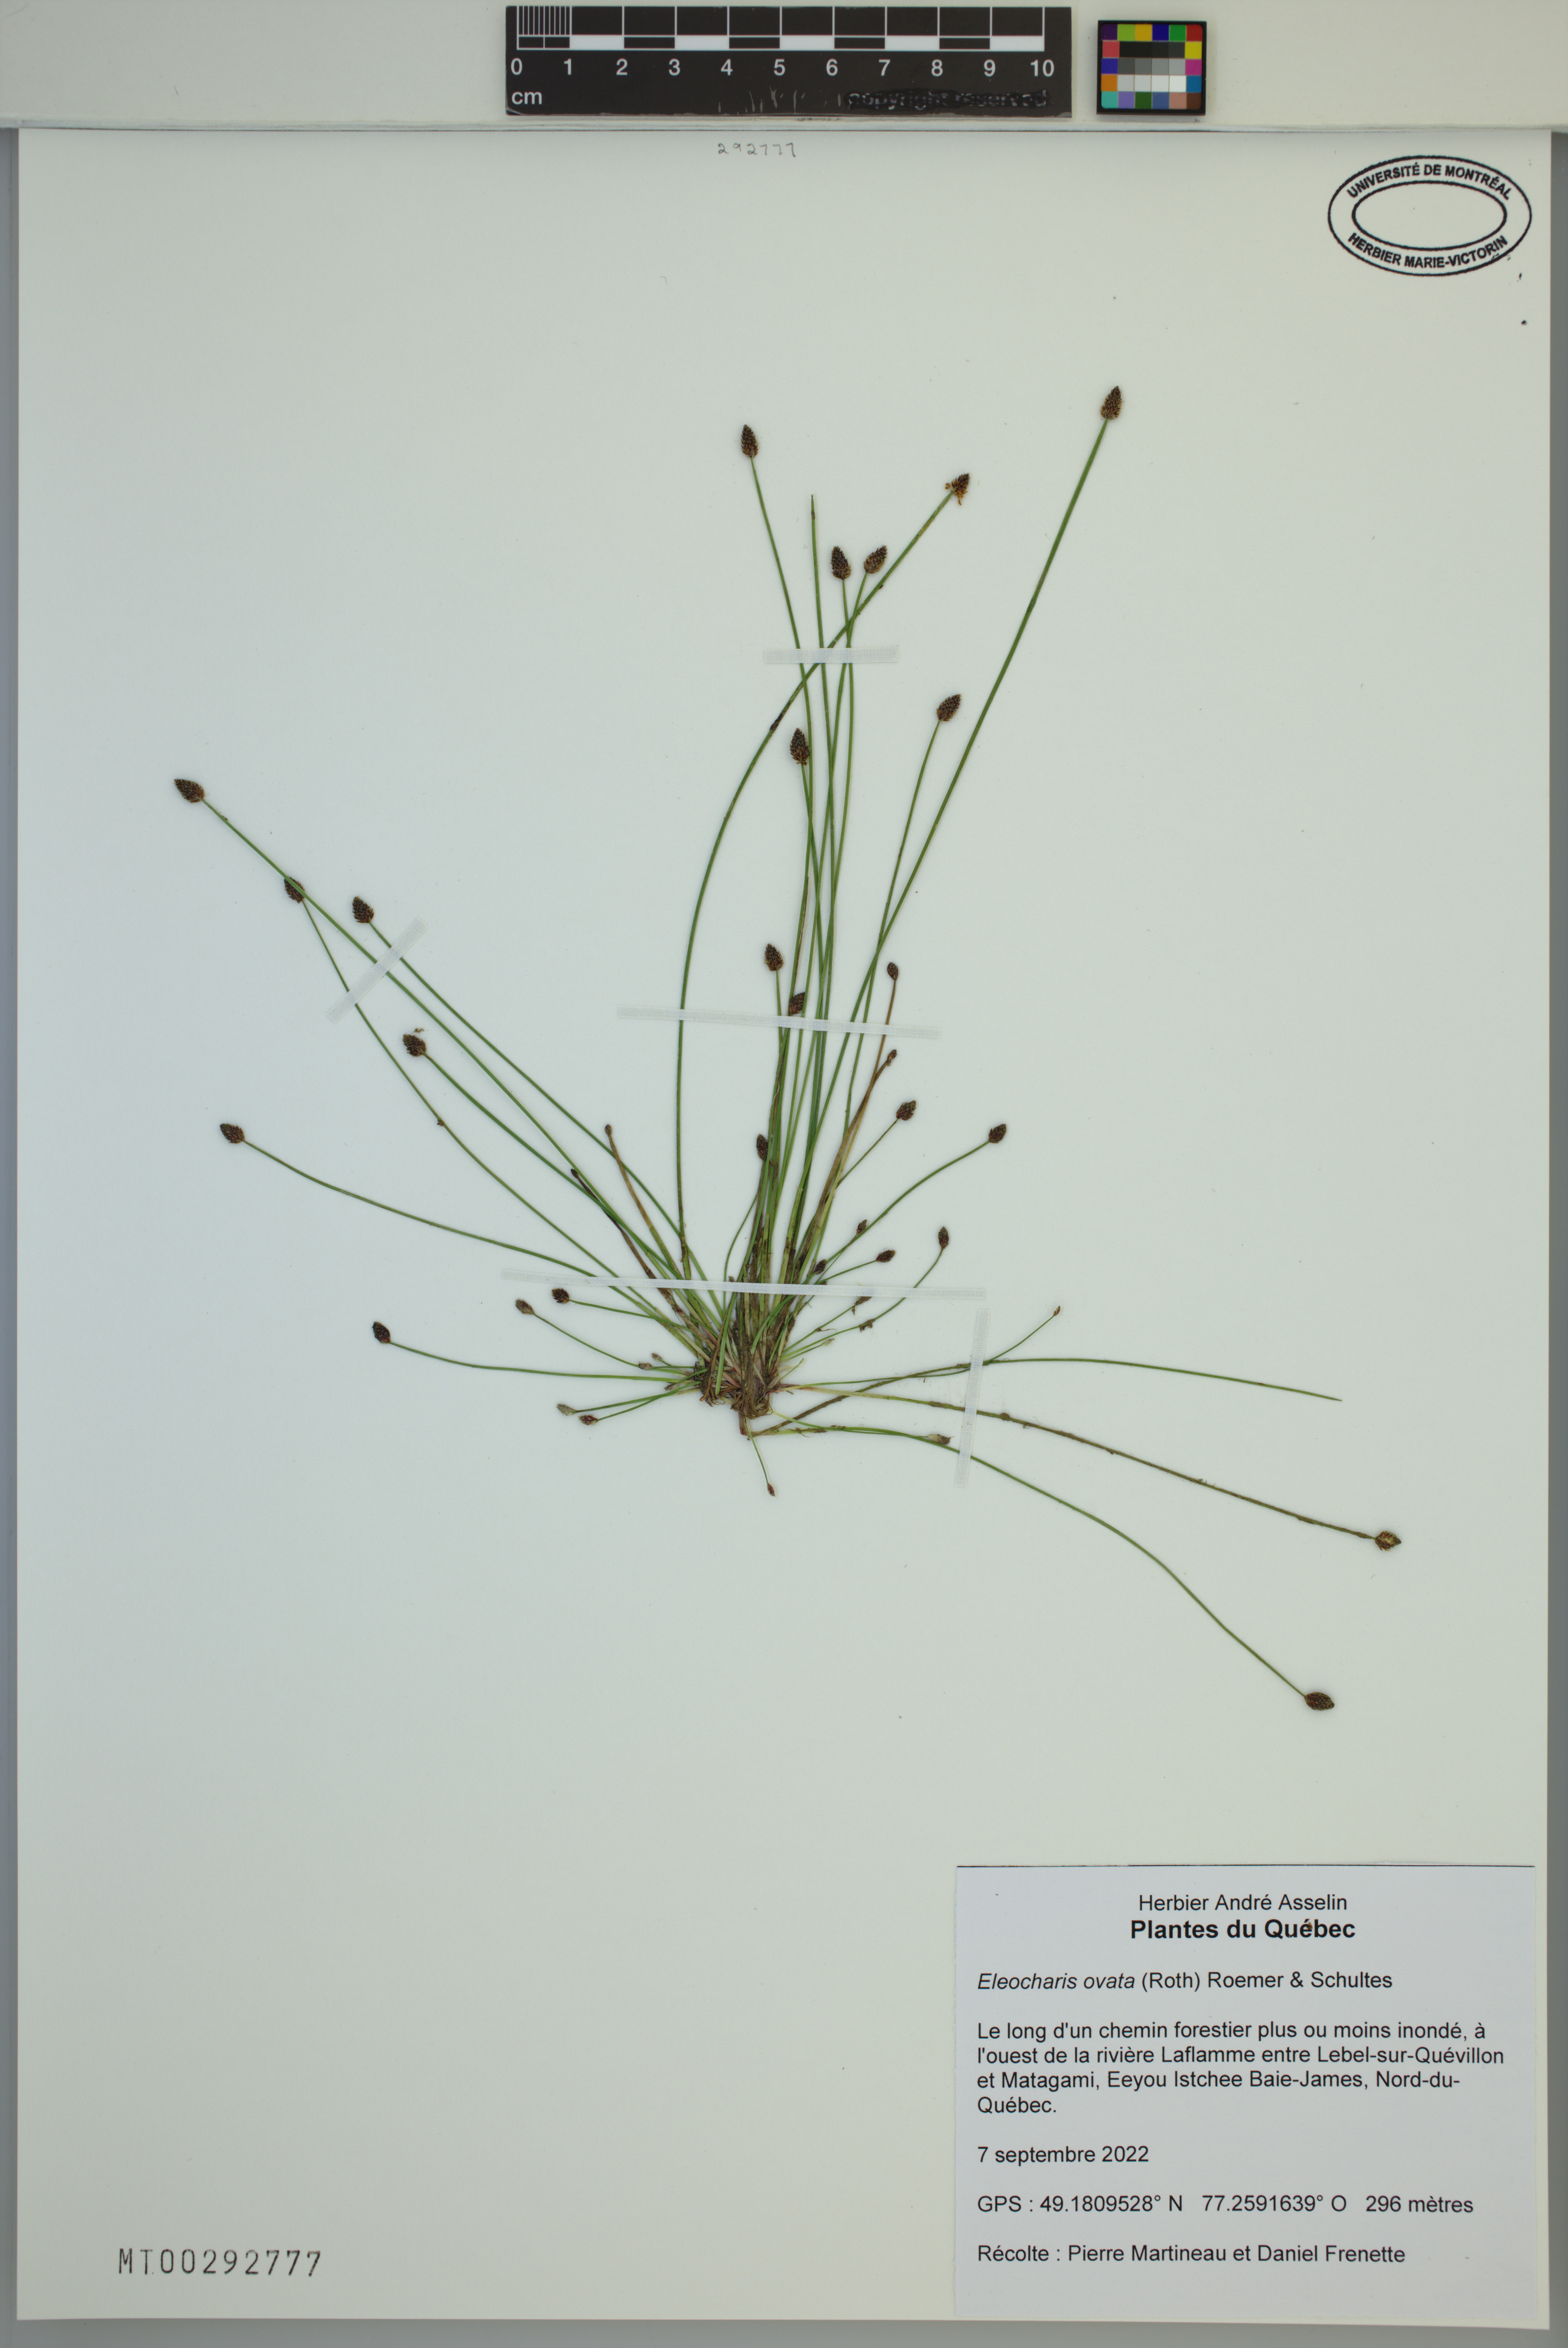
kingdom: Plantae
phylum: Tracheophyta
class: Liliopsida
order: Poales
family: Cyperaceae
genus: Eleocharis
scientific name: Eleocharis ovata
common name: Oval spike-rush
